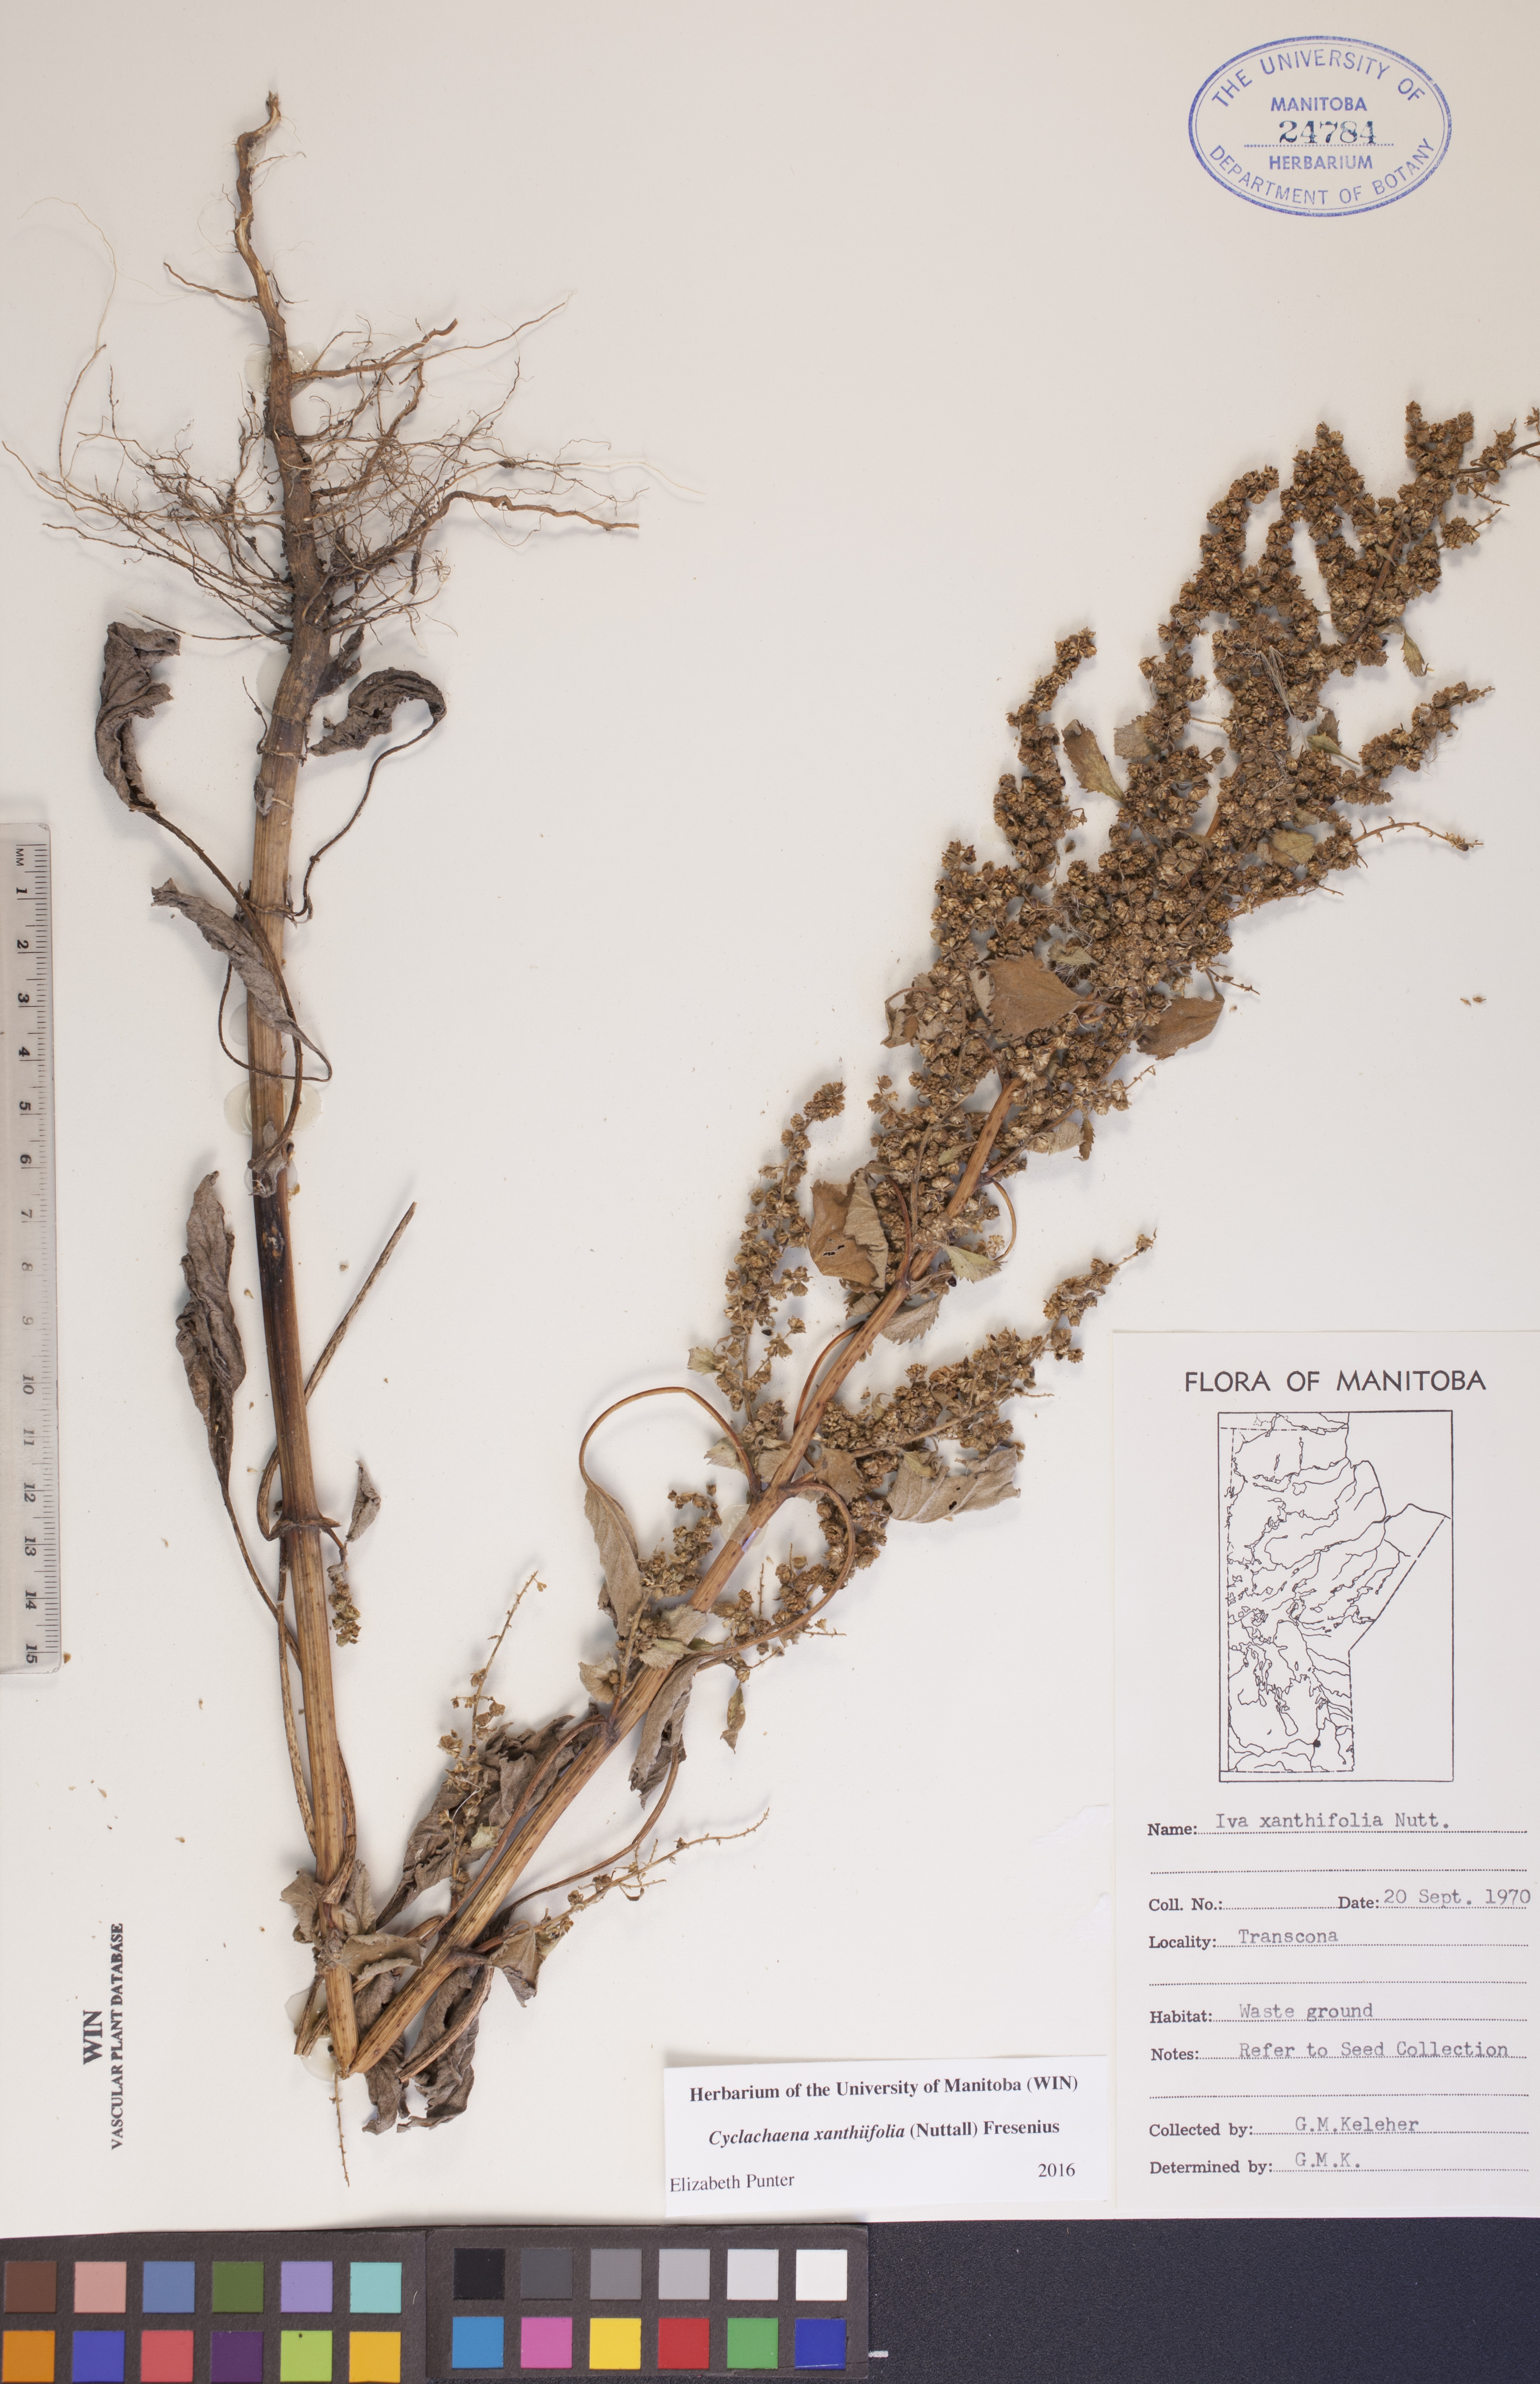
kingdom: Plantae
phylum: Tracheophyta
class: Magnoliopsida
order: Asterales
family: Asteraceae
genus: Cyclachaena
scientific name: Cyclachaena xanthiifolia
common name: Giant sumpweed
